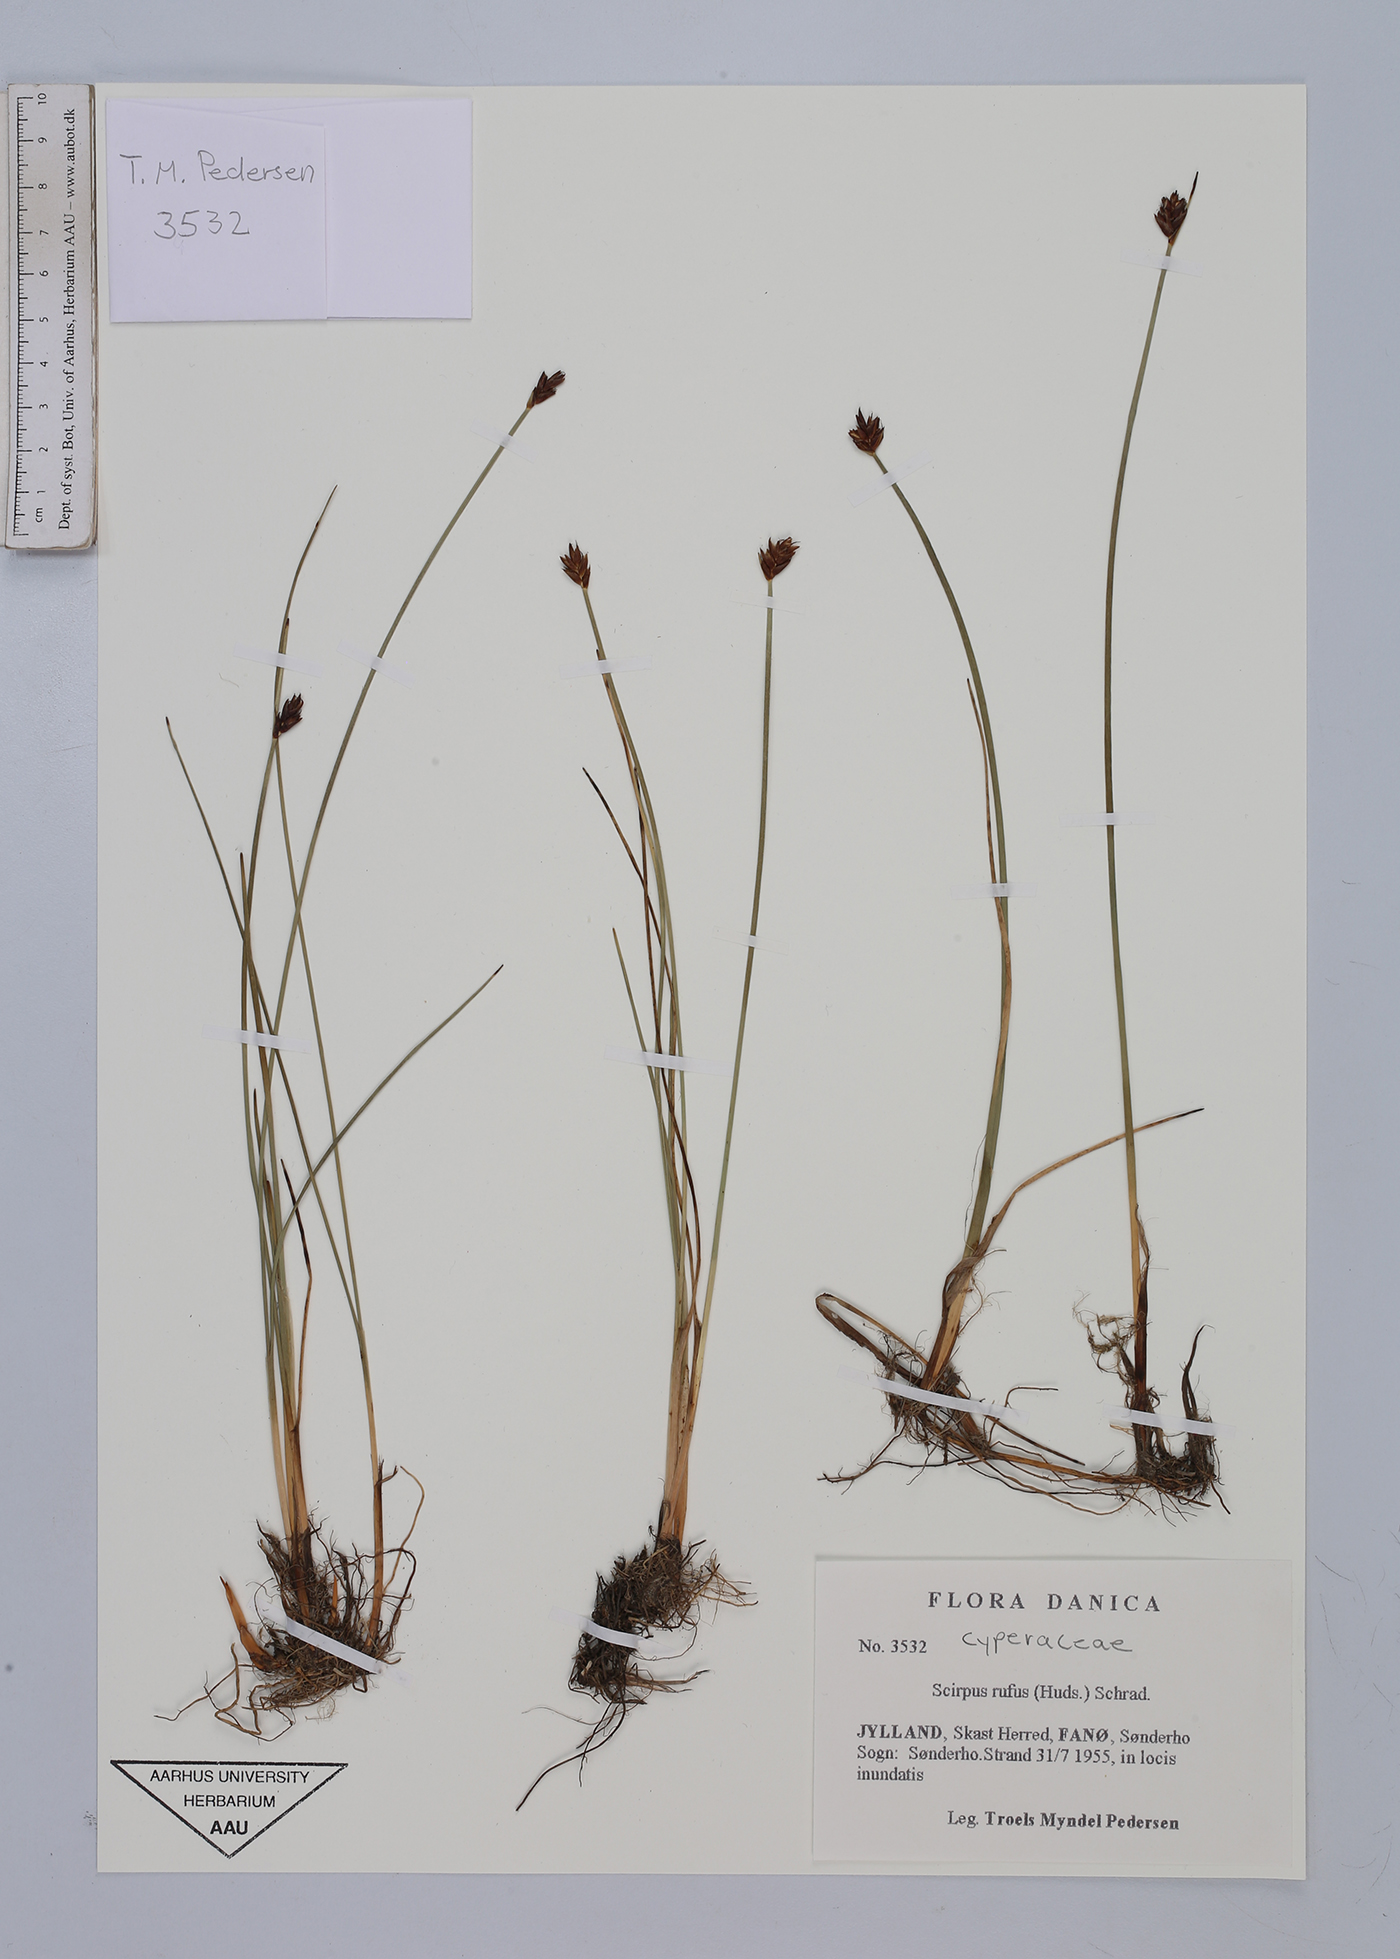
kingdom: Plantae
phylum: Tracheophyta
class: Liliopsida
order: Poales
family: Cyperaceae
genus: Blysmus
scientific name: Blysmus rufus
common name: Saltmarsh flat-sedge
